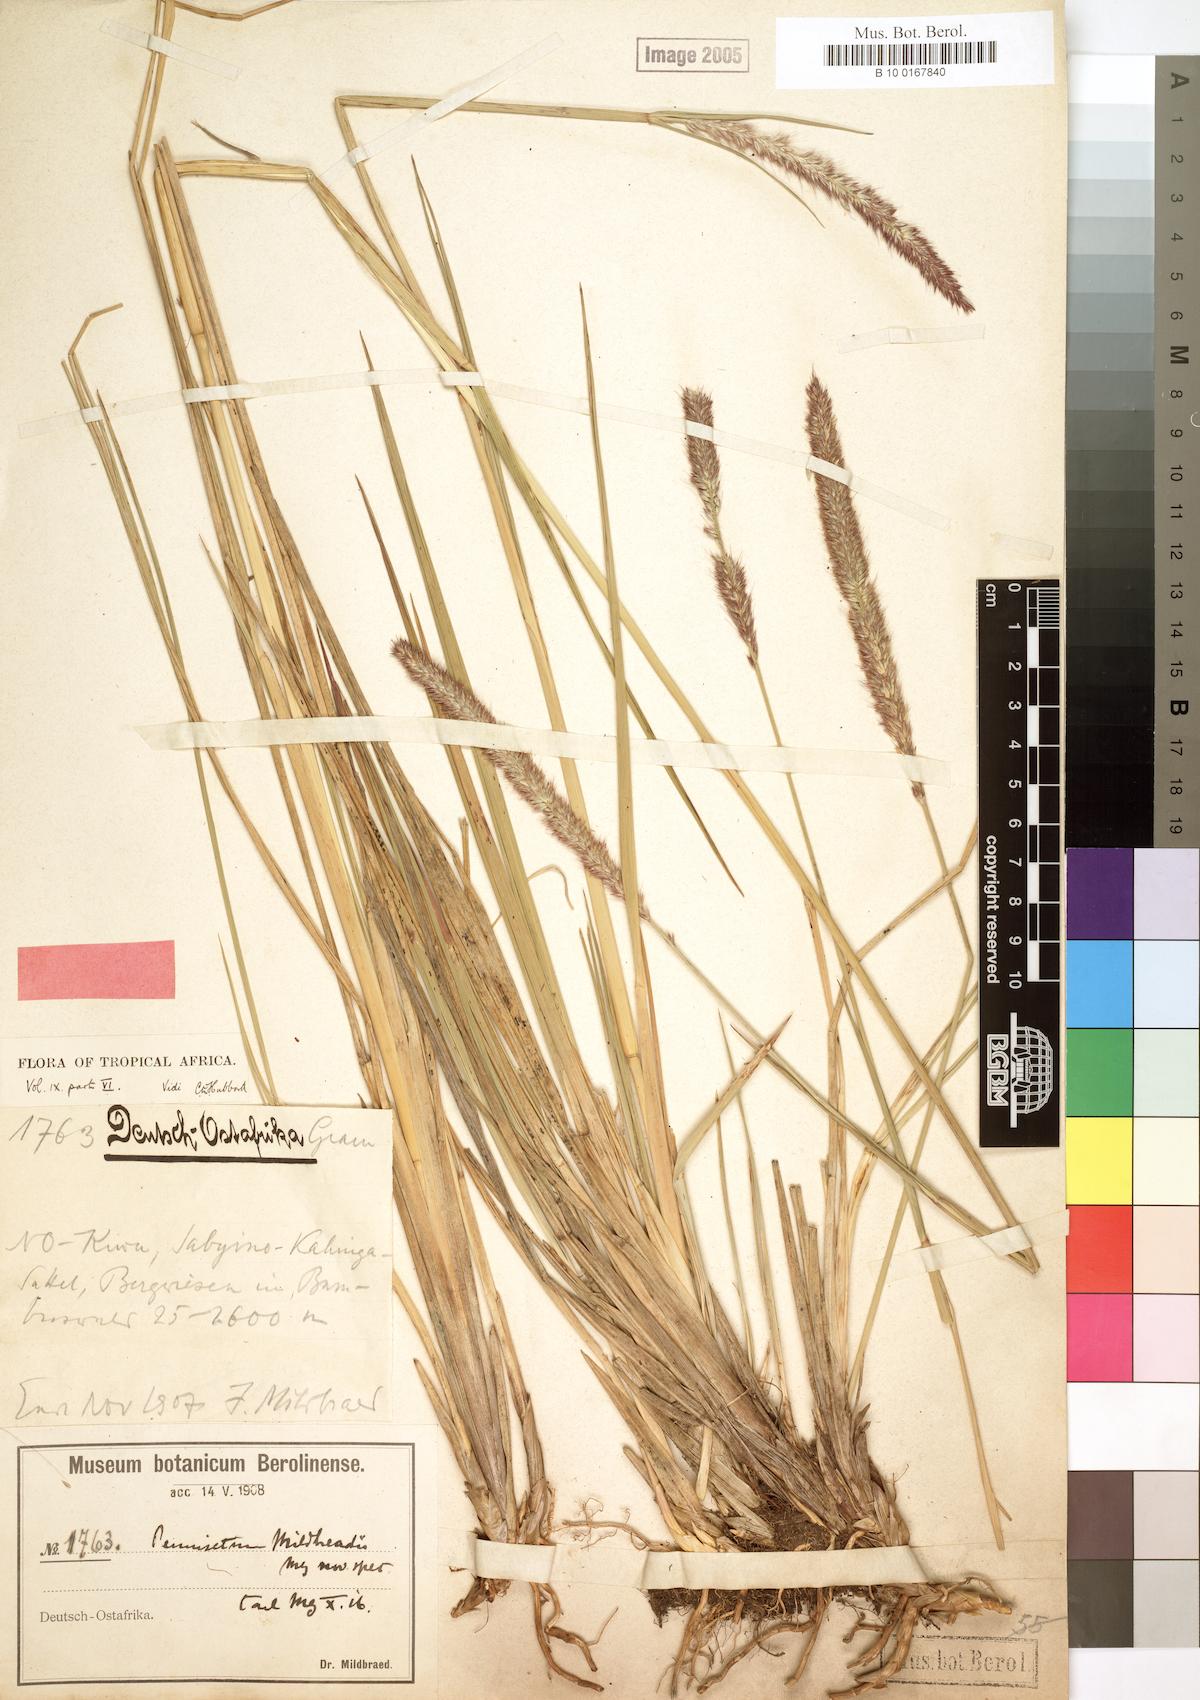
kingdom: Plantae
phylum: Tracheophyta
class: Liliopsida
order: Poales
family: Poaceae
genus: Cenchrus
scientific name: Cenchrus caudatus
